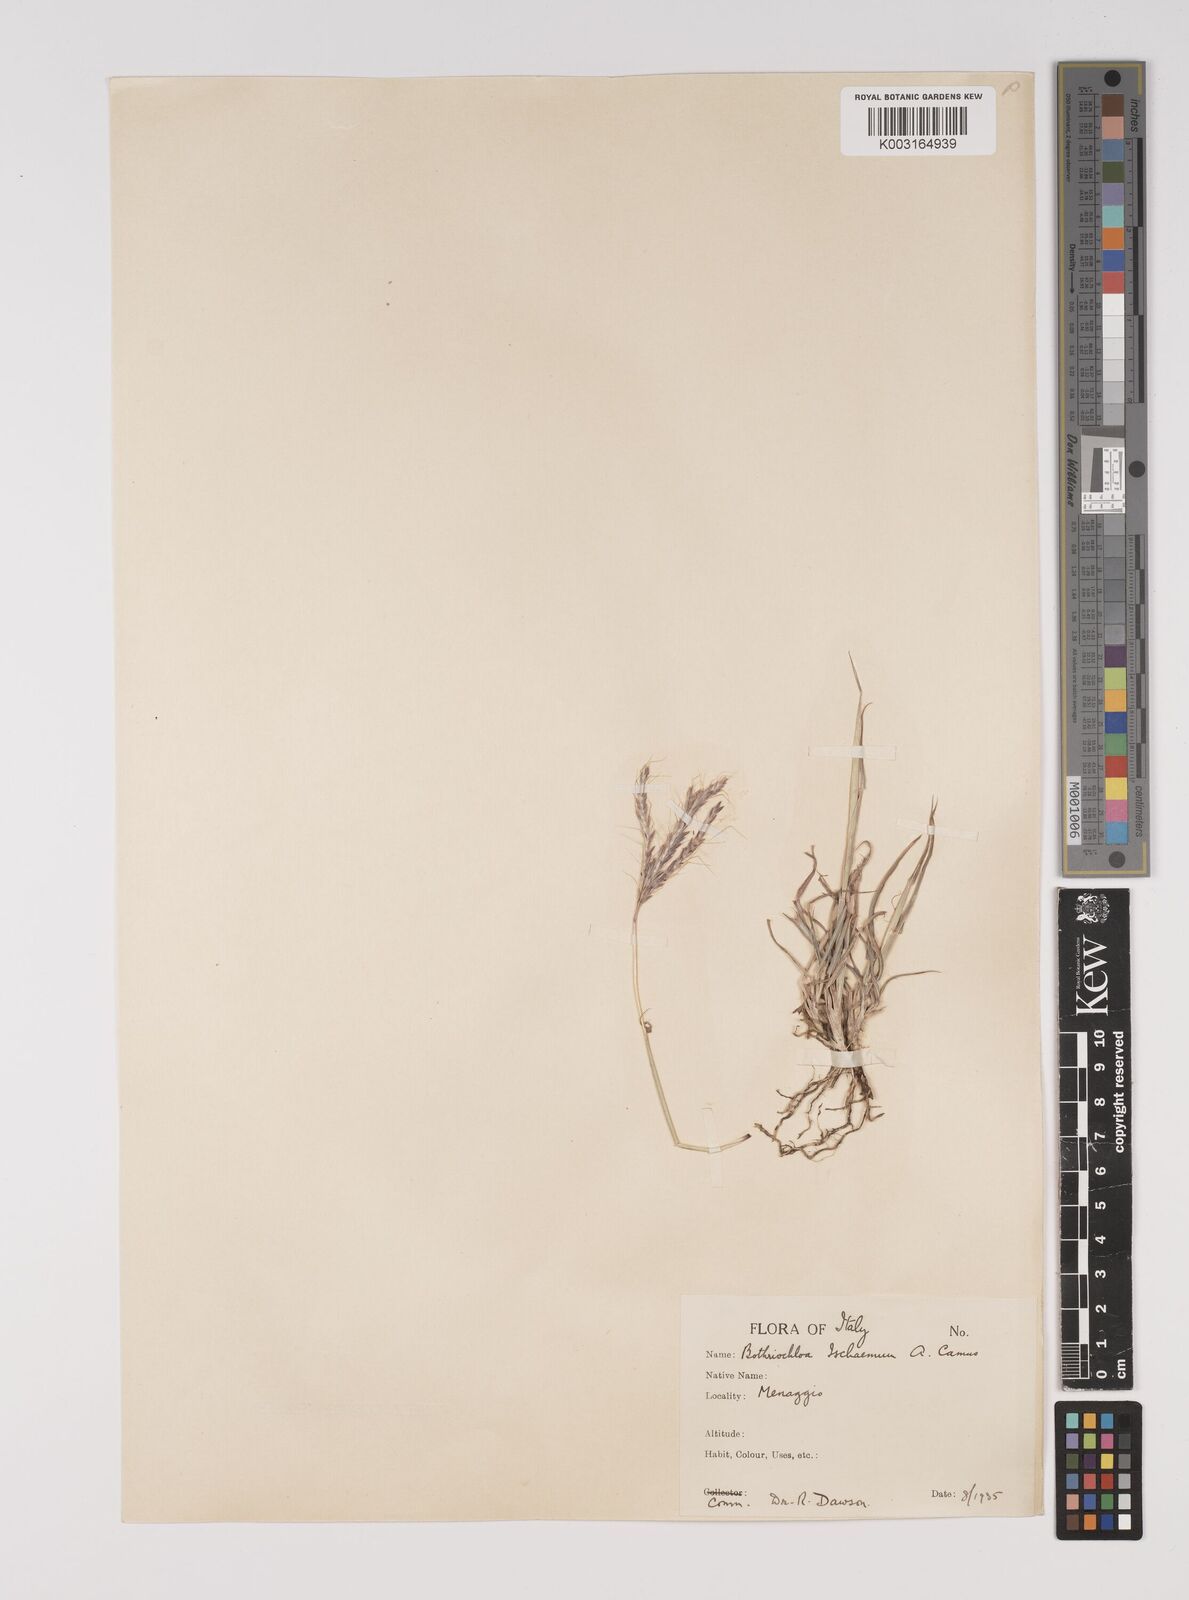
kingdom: Plantae
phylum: Tracheophyta
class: Liliopsida
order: Poales
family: Poaceae
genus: Bothriochloa
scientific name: Bothriochloa ischaemum
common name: Yellow bluestem
